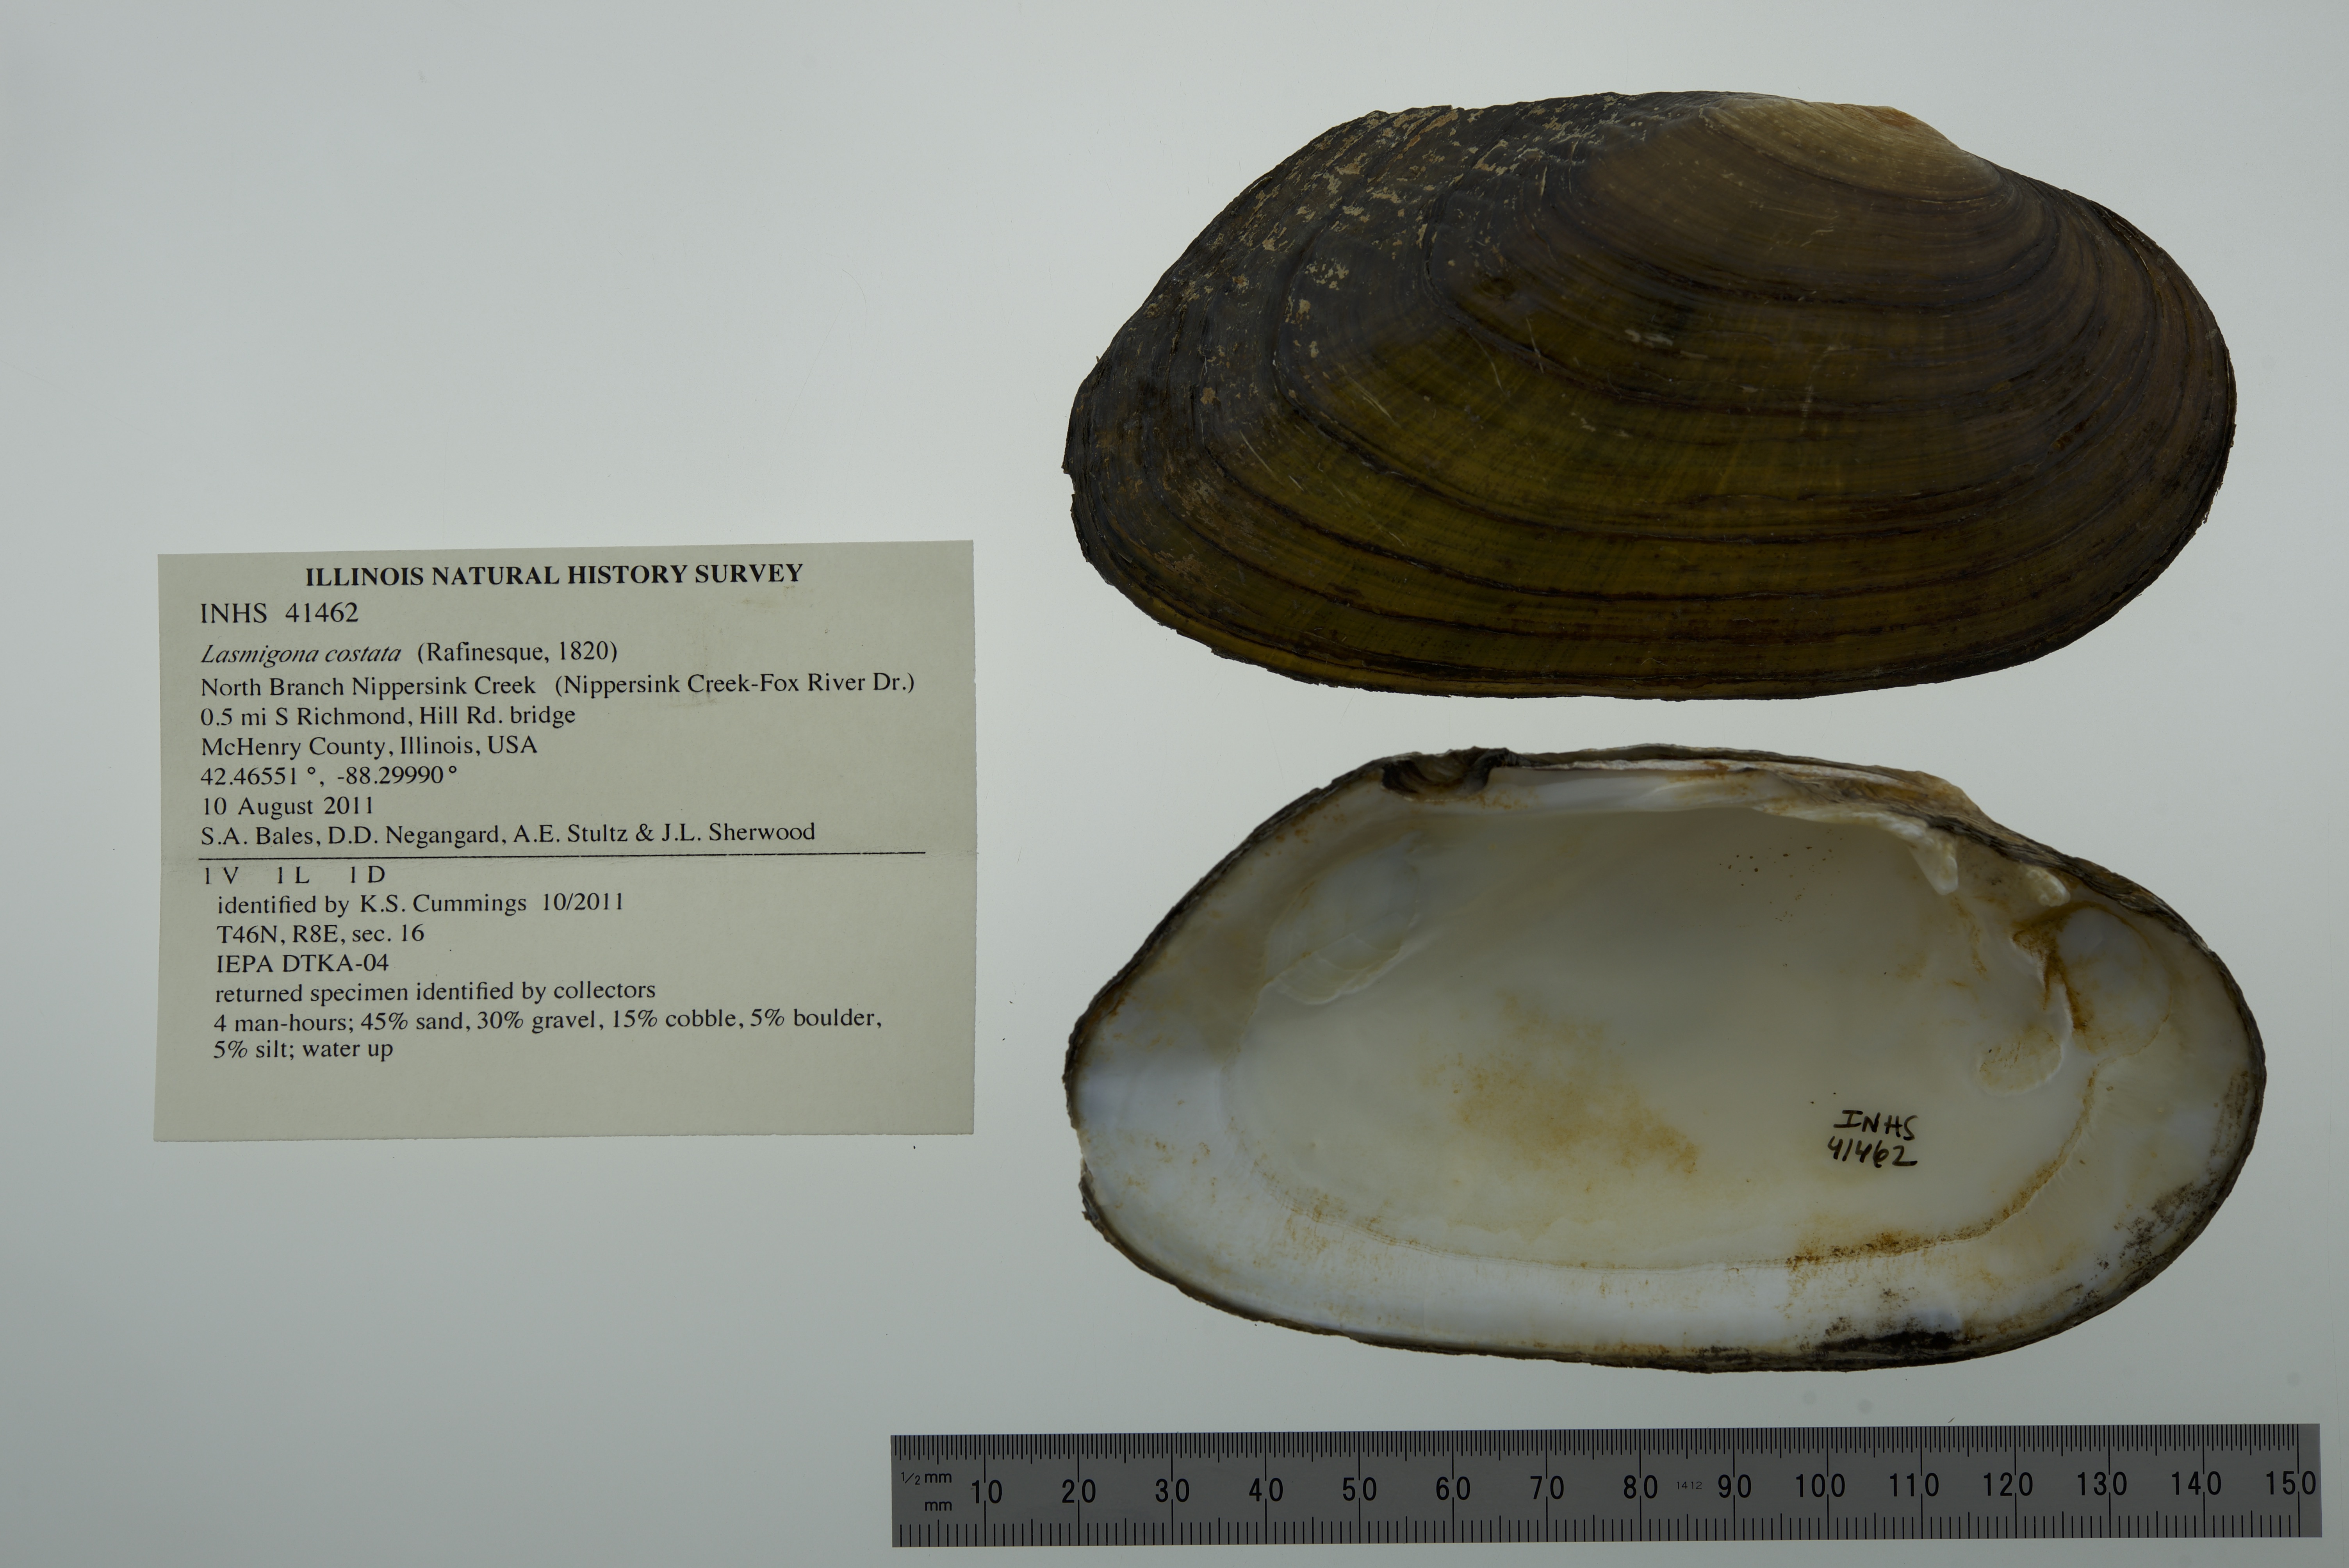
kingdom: Animalia
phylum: Mollusca
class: Bivalvia
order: Unionida
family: Unionidae
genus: Lasmigona
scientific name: Lasmigona costata
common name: Flutedshell
